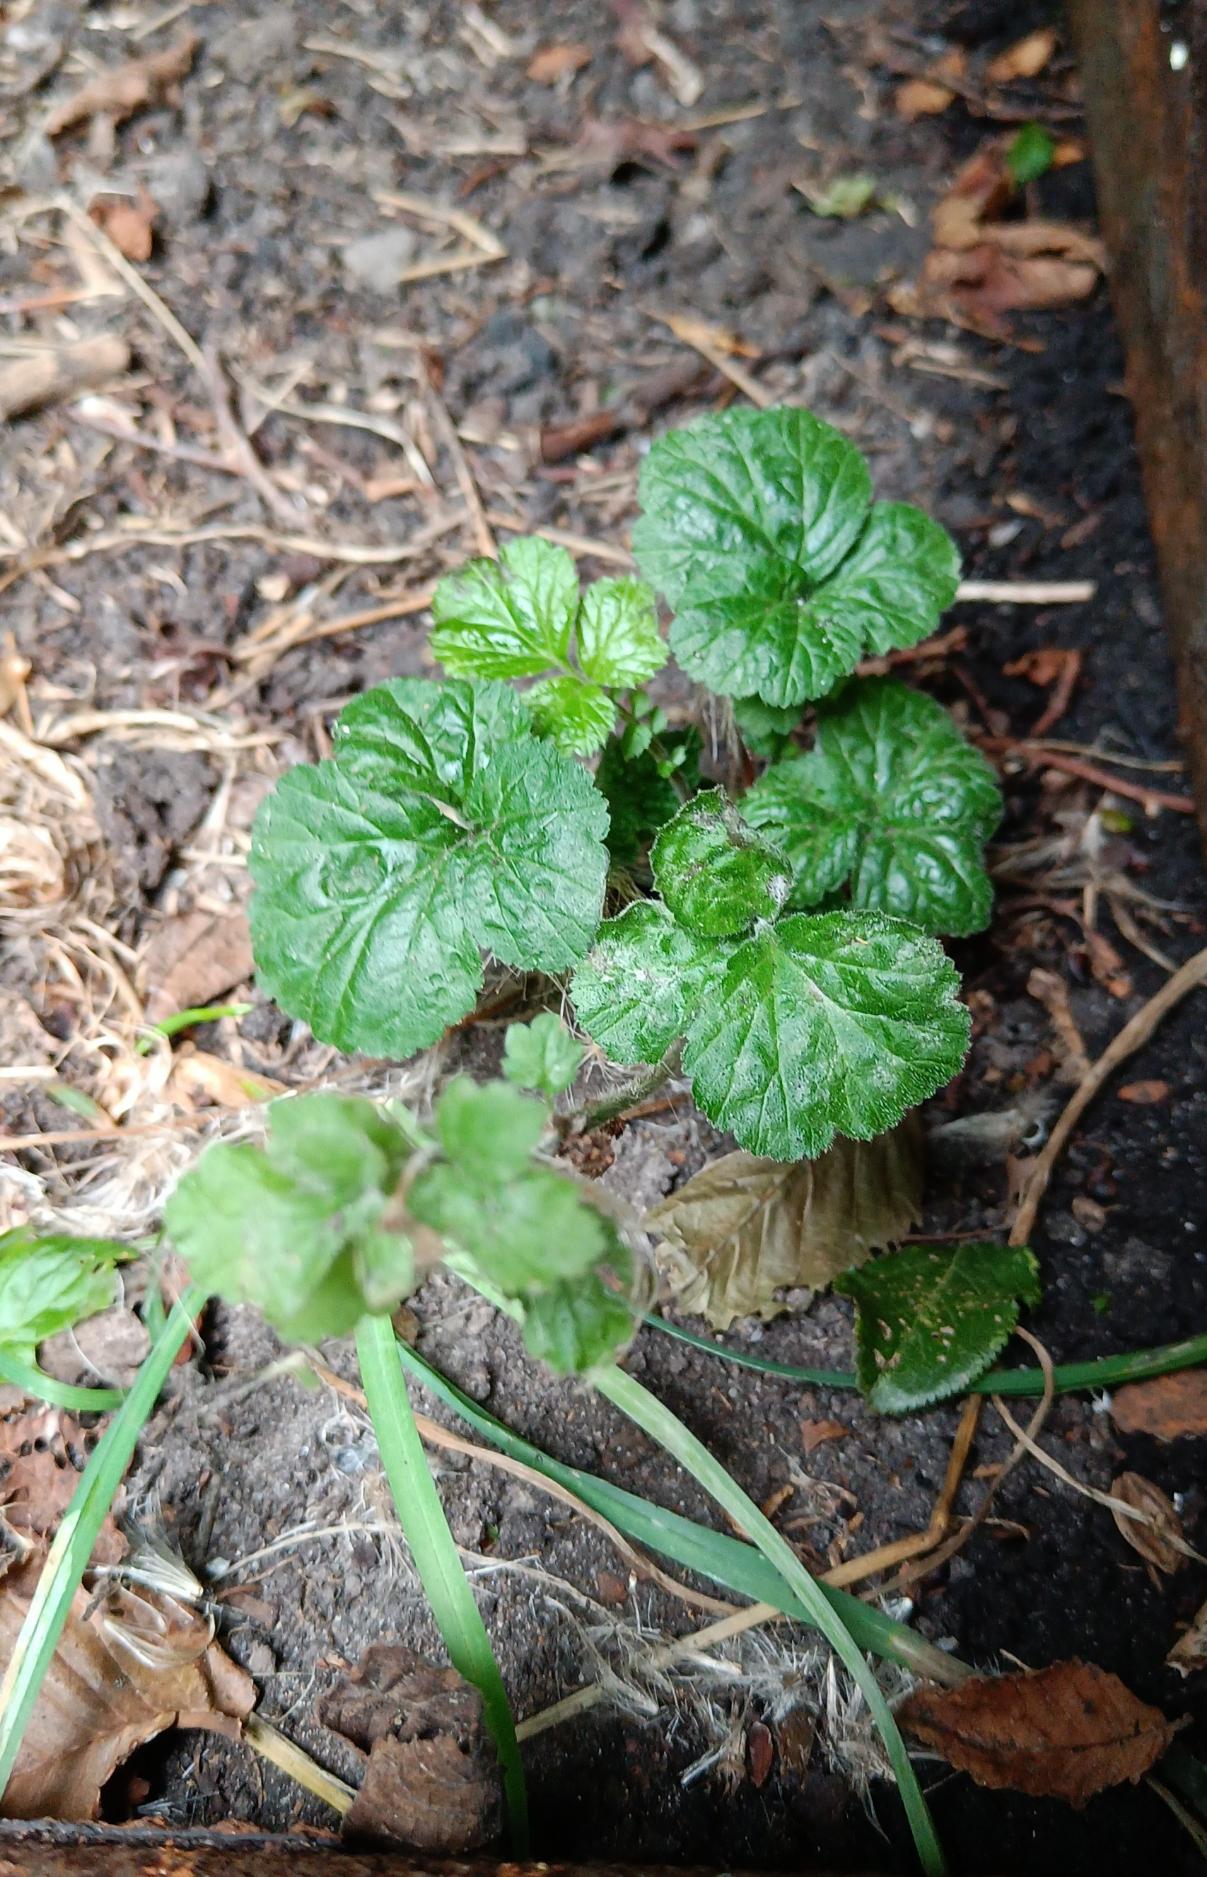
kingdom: Plantae
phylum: Tracheophyta
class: Magnoliopsida
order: Rosales
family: Rosaceae
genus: Geum
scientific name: Geum urbanum
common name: Feber-nellikerod
